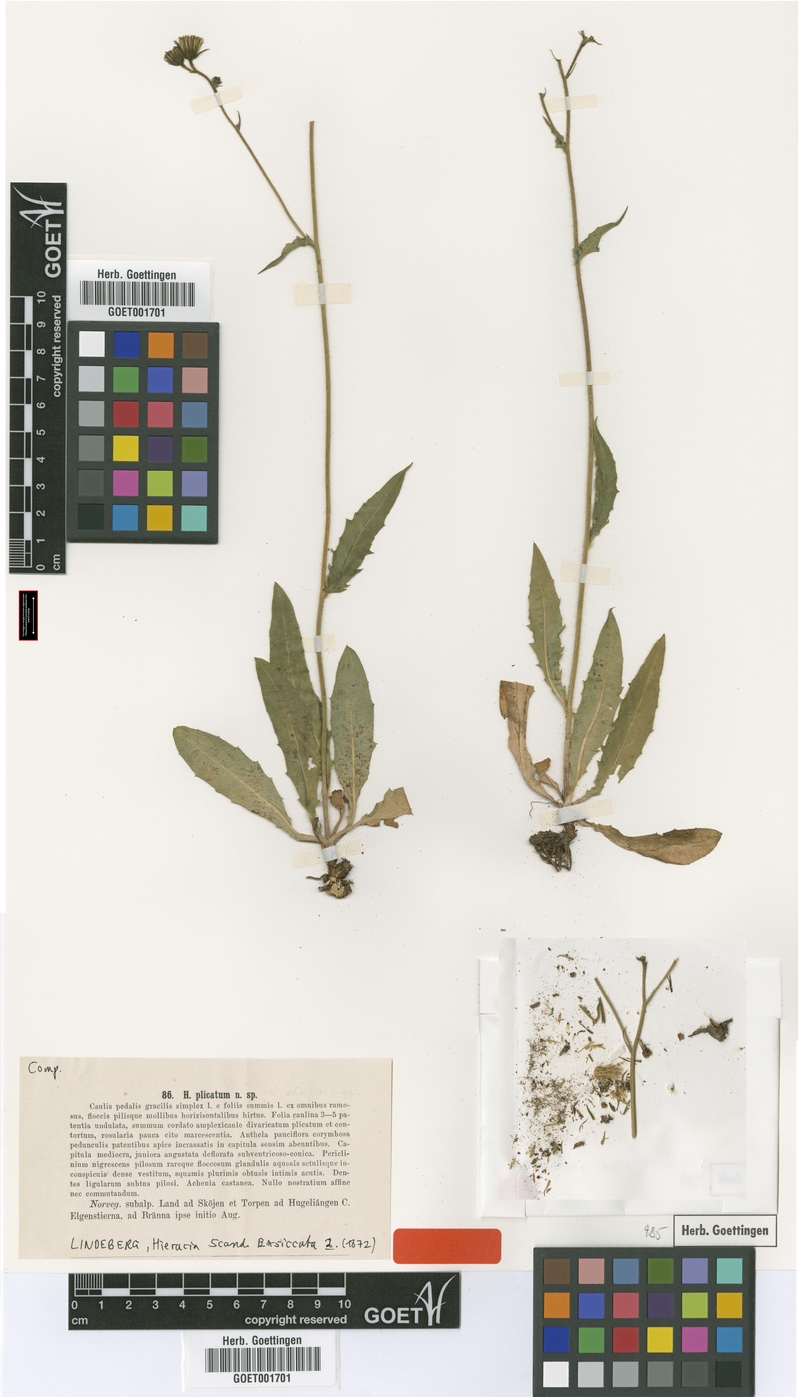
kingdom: Plantae
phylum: Tracheophyta
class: Magnoliopsida
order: Asterales
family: Asteraceae
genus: Hieracium
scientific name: Hieracium plicatum
